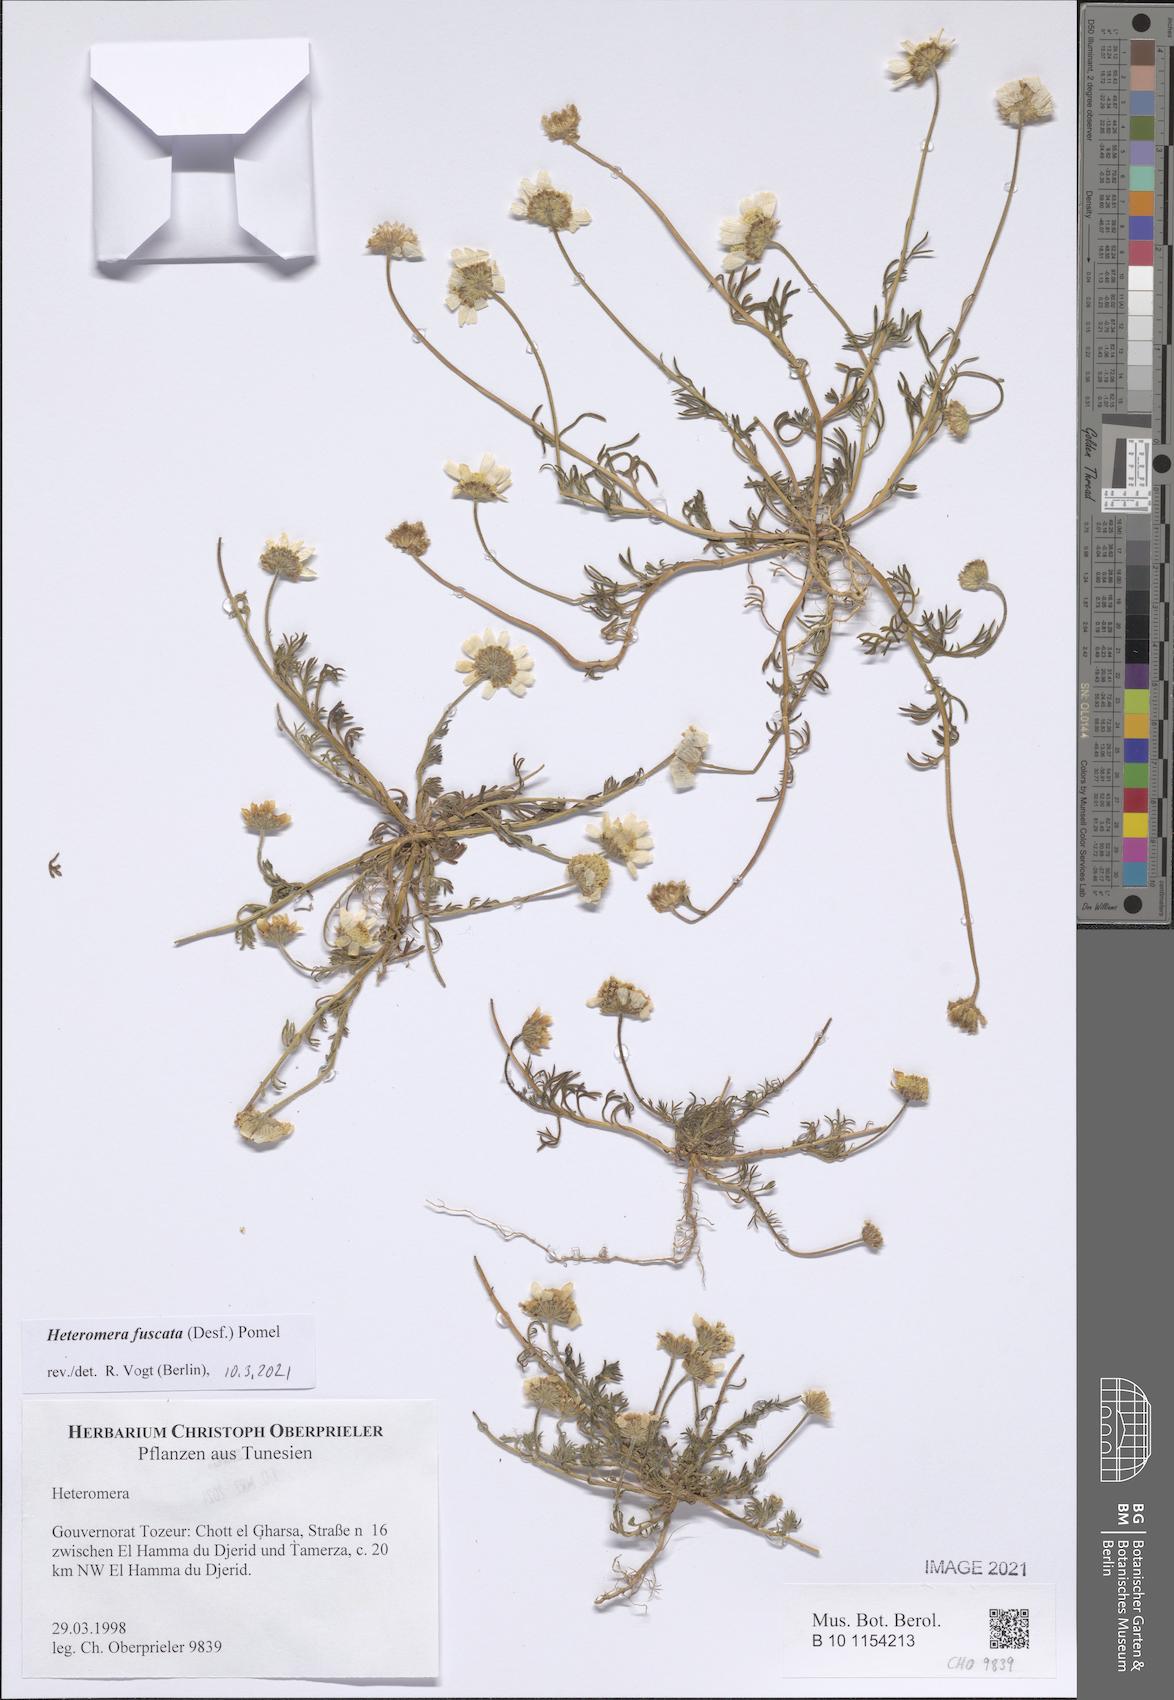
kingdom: Plantae
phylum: Tracheophyta
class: Magnoliopsida
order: Asterales
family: Asteraceae
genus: Heteromera
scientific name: Heteromera fuscata
